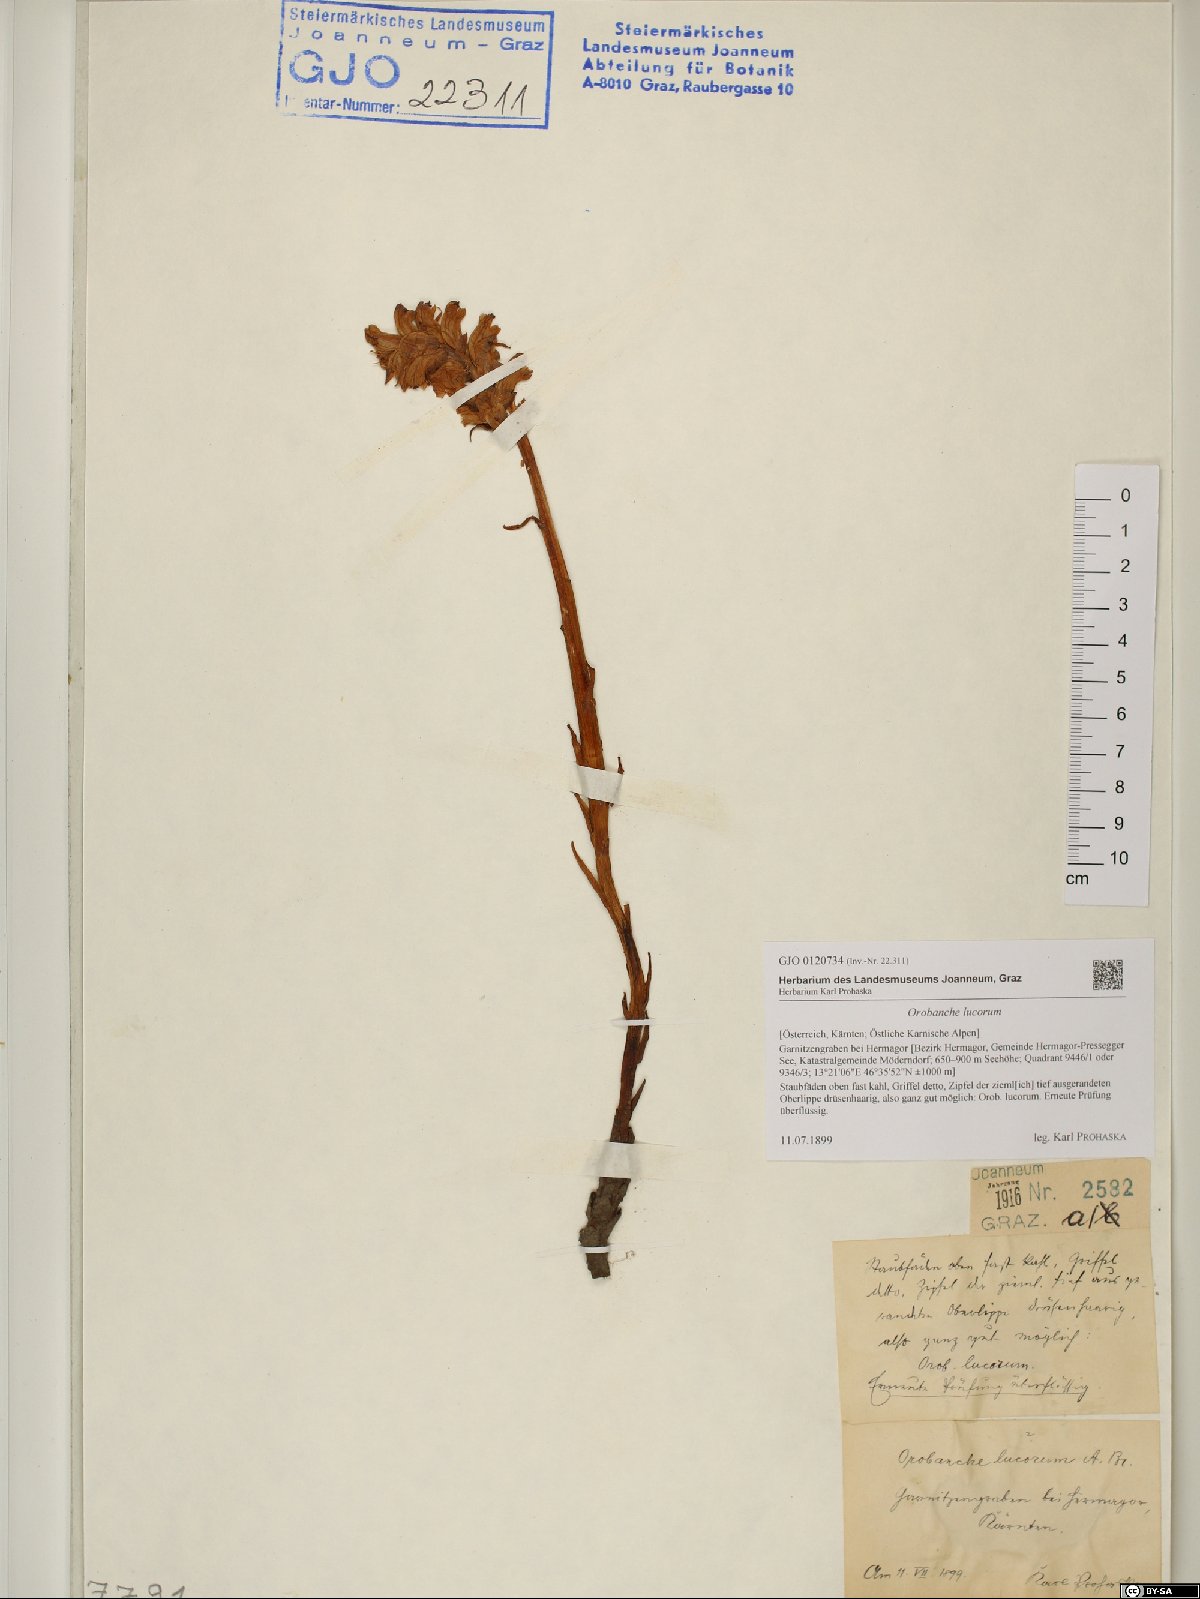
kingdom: Plantae
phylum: Tracheophyta
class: Magnoliopsida
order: Lamiales
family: Orobanchaceae
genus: Orobanche
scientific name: Orobanche lucorum
